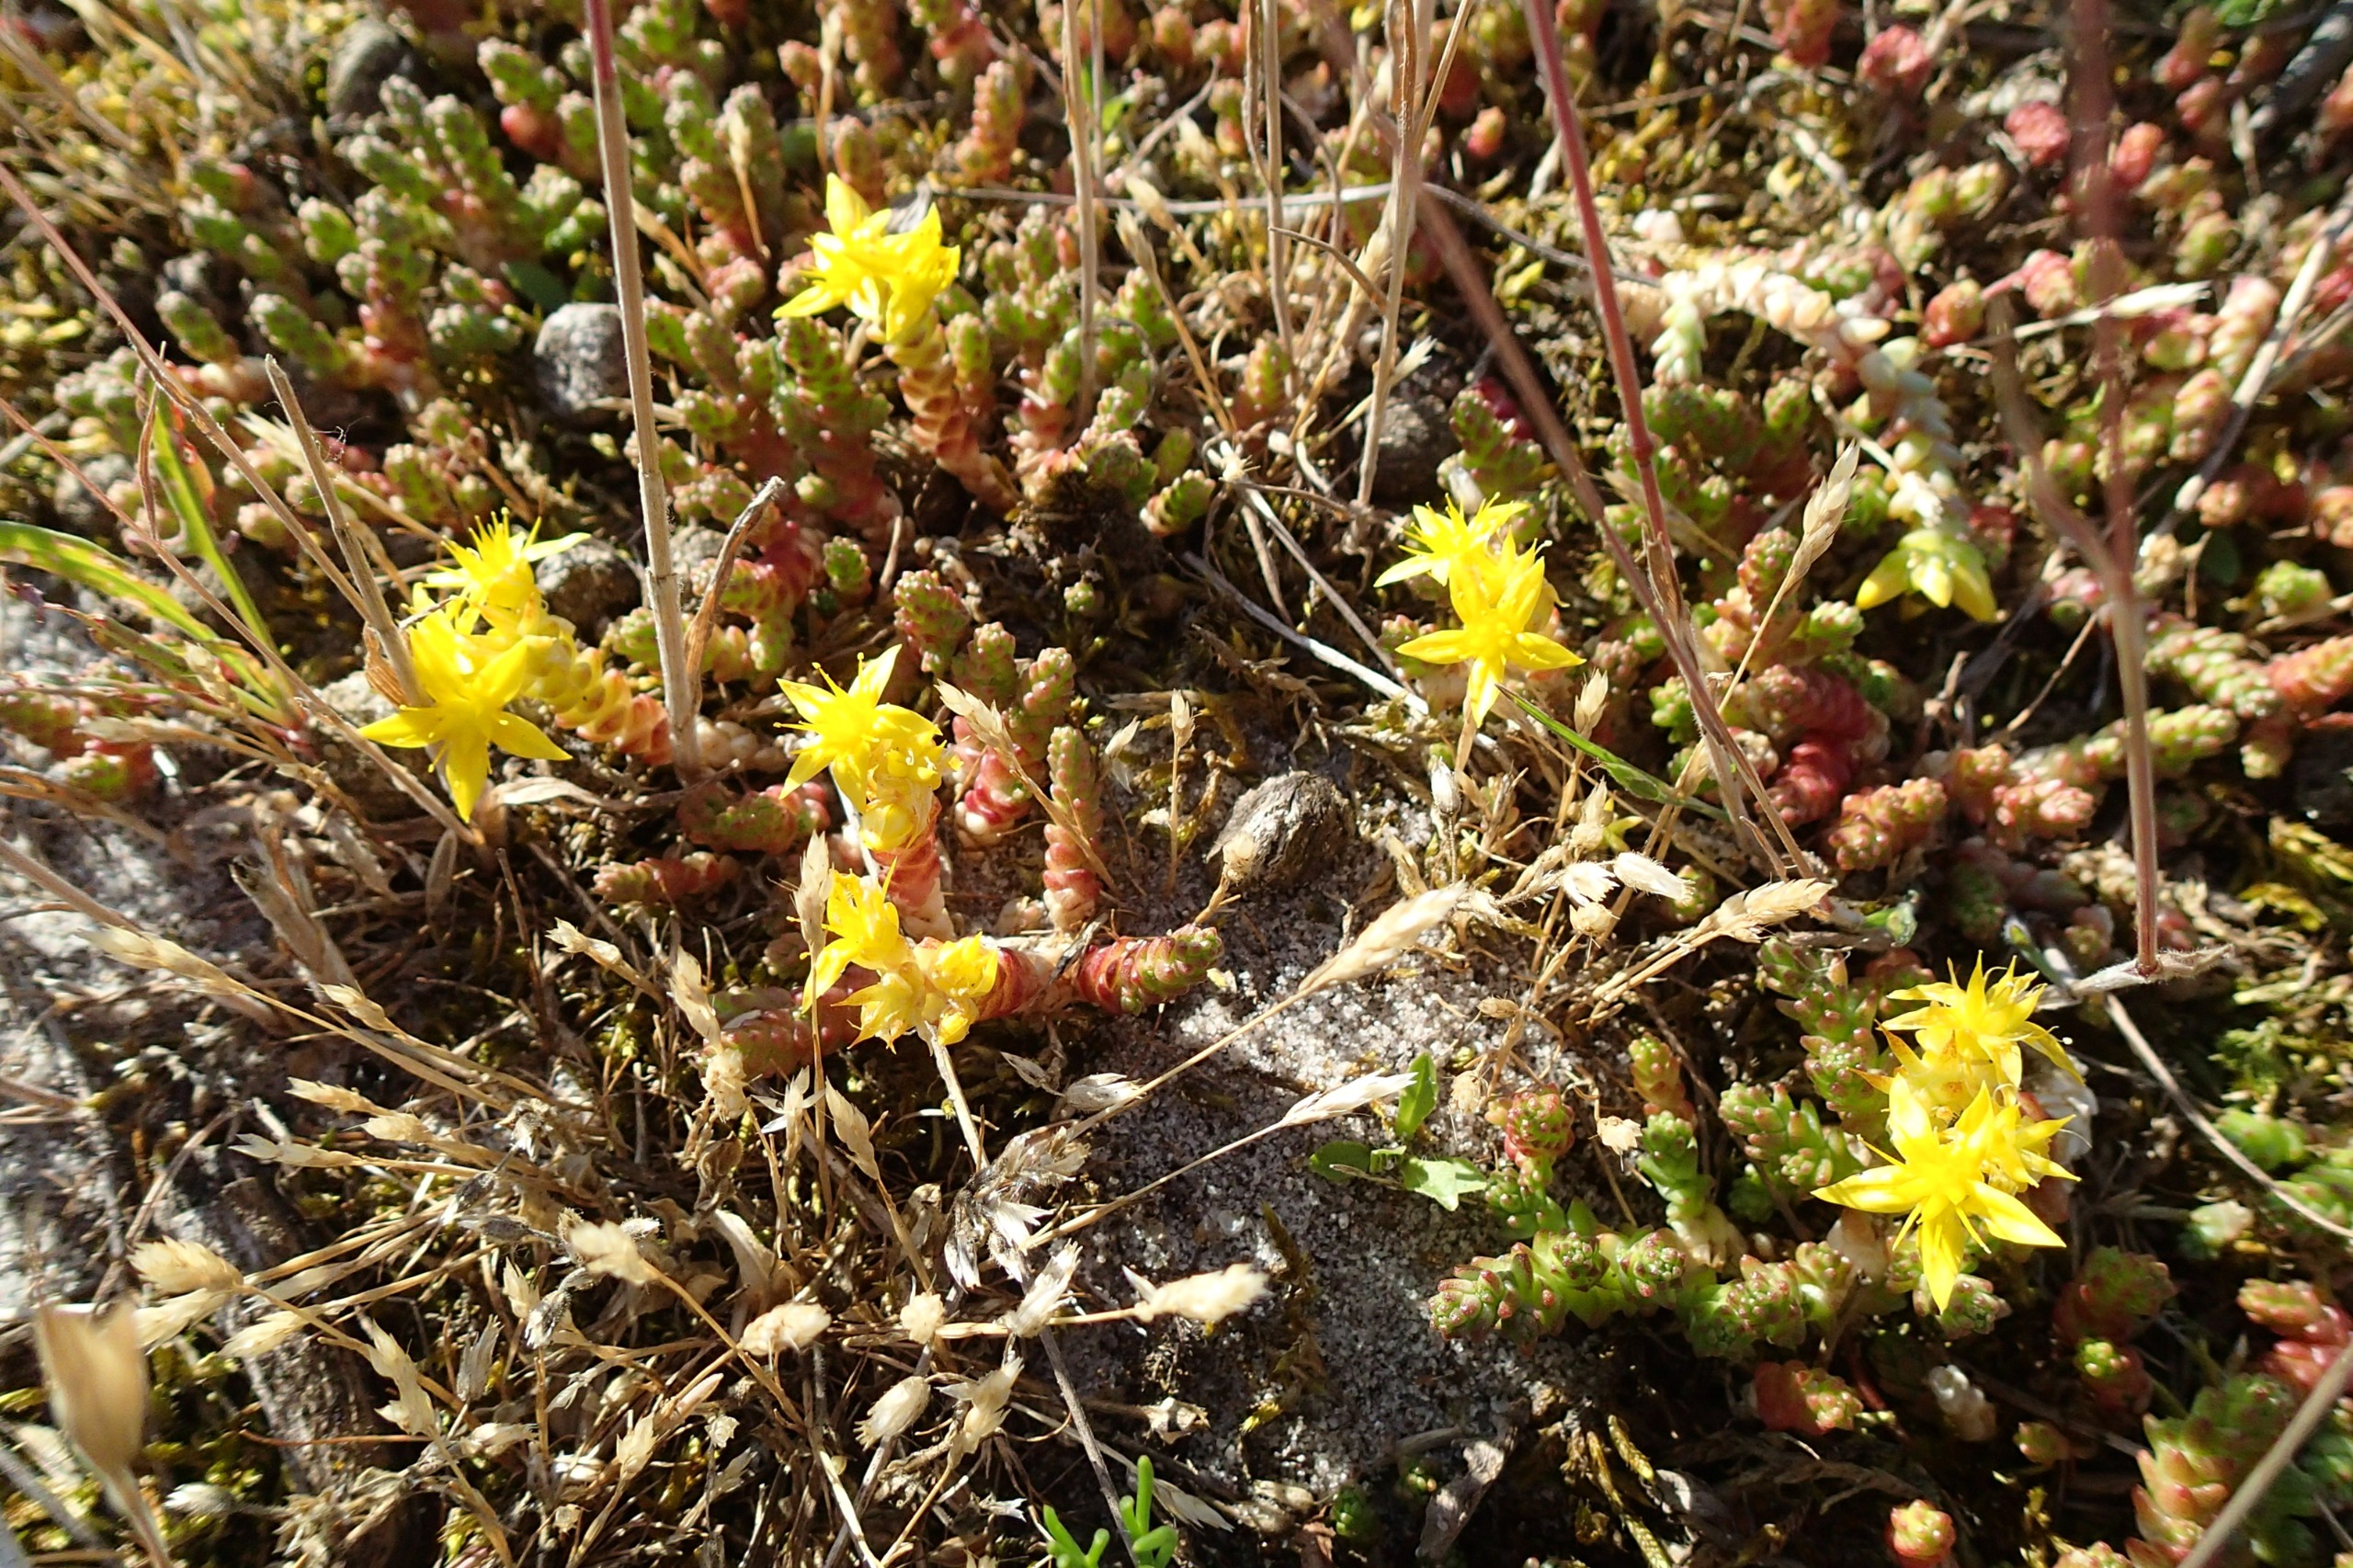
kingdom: Plantae
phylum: Tracheophyta
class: Magnoliopsida
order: Saxifragales
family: Crassulaceae
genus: Sedum
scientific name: Sedum acre
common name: Bidende stenurt
